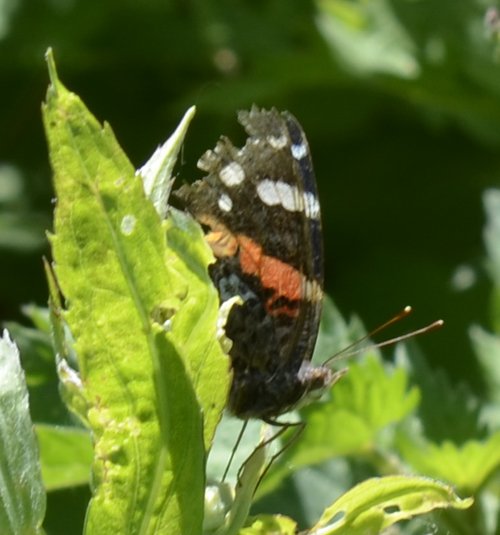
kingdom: Animalia
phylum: Arthropoda
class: Insecta
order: Lepidoptera
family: Nymphalidae
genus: Vanessa
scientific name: Vanessa atalanta
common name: Red Admiral
